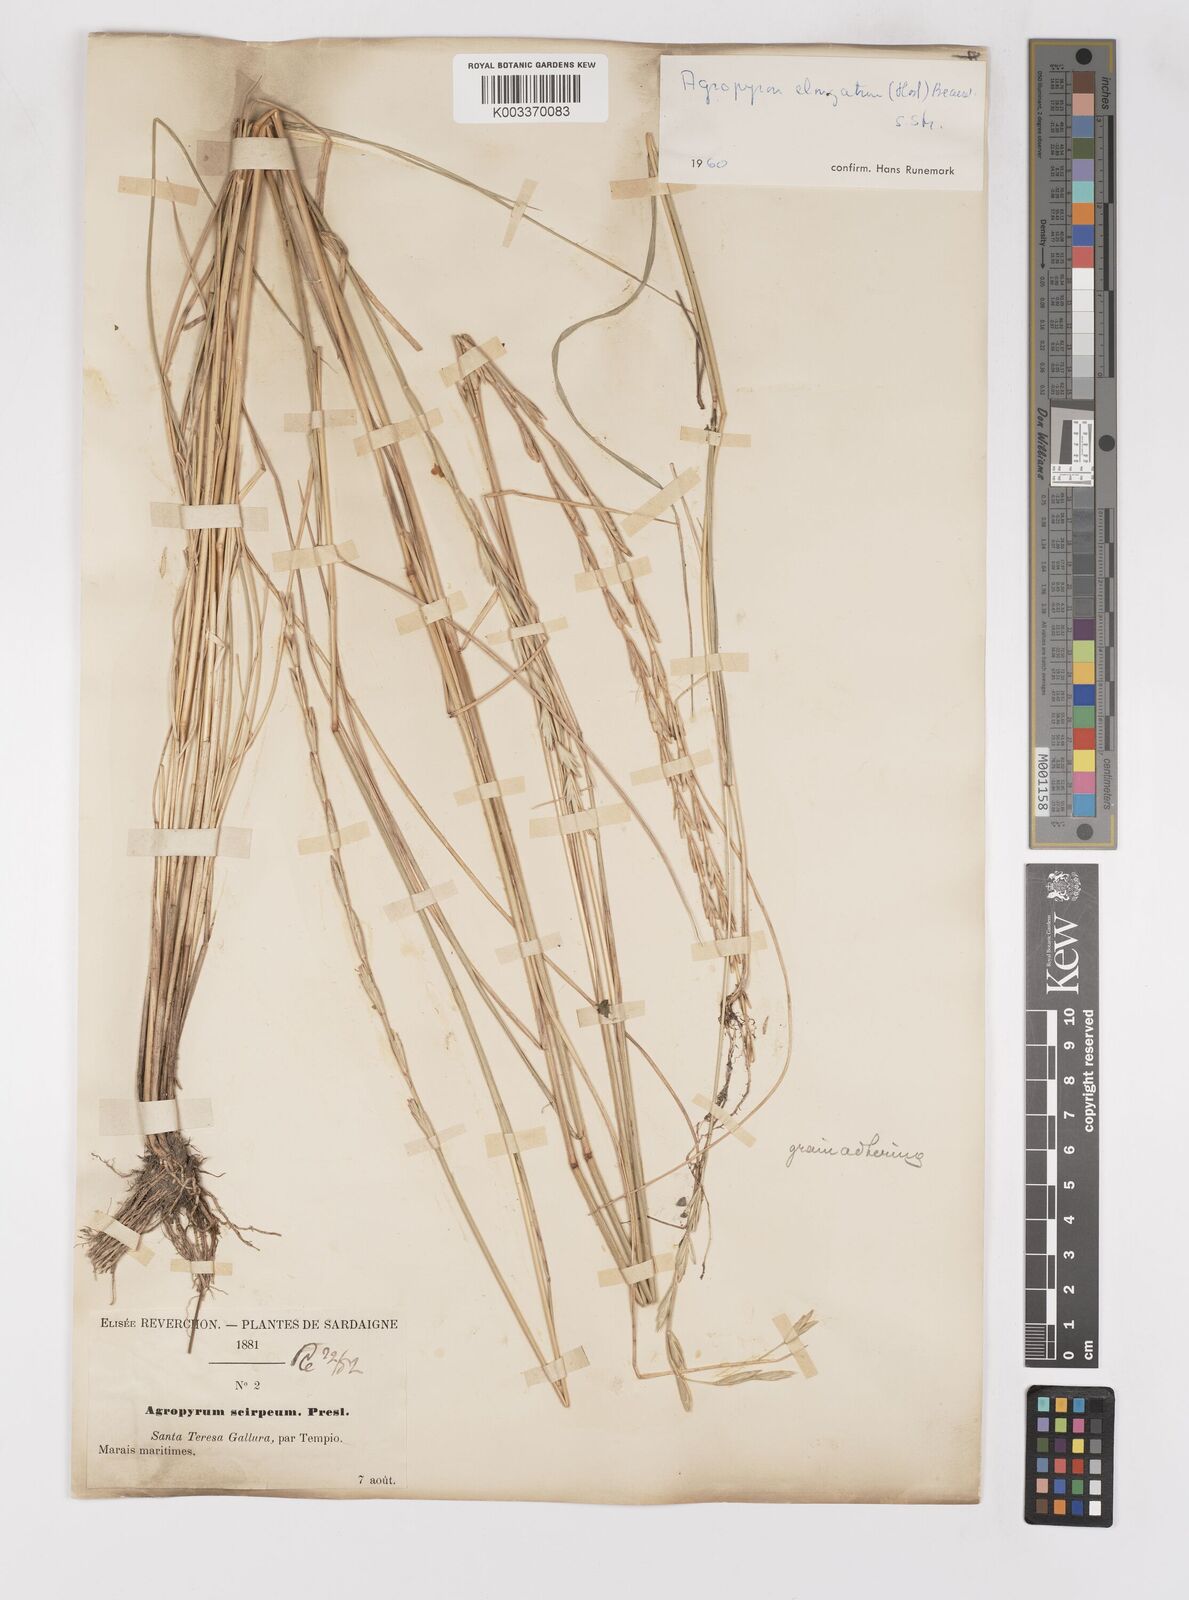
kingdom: Plantae
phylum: Tracheophyta
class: Liliopsida
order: Poales
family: Poaceae
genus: Thinopyrum
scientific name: Thinopyrum elongatum
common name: Tall wheatgrass
